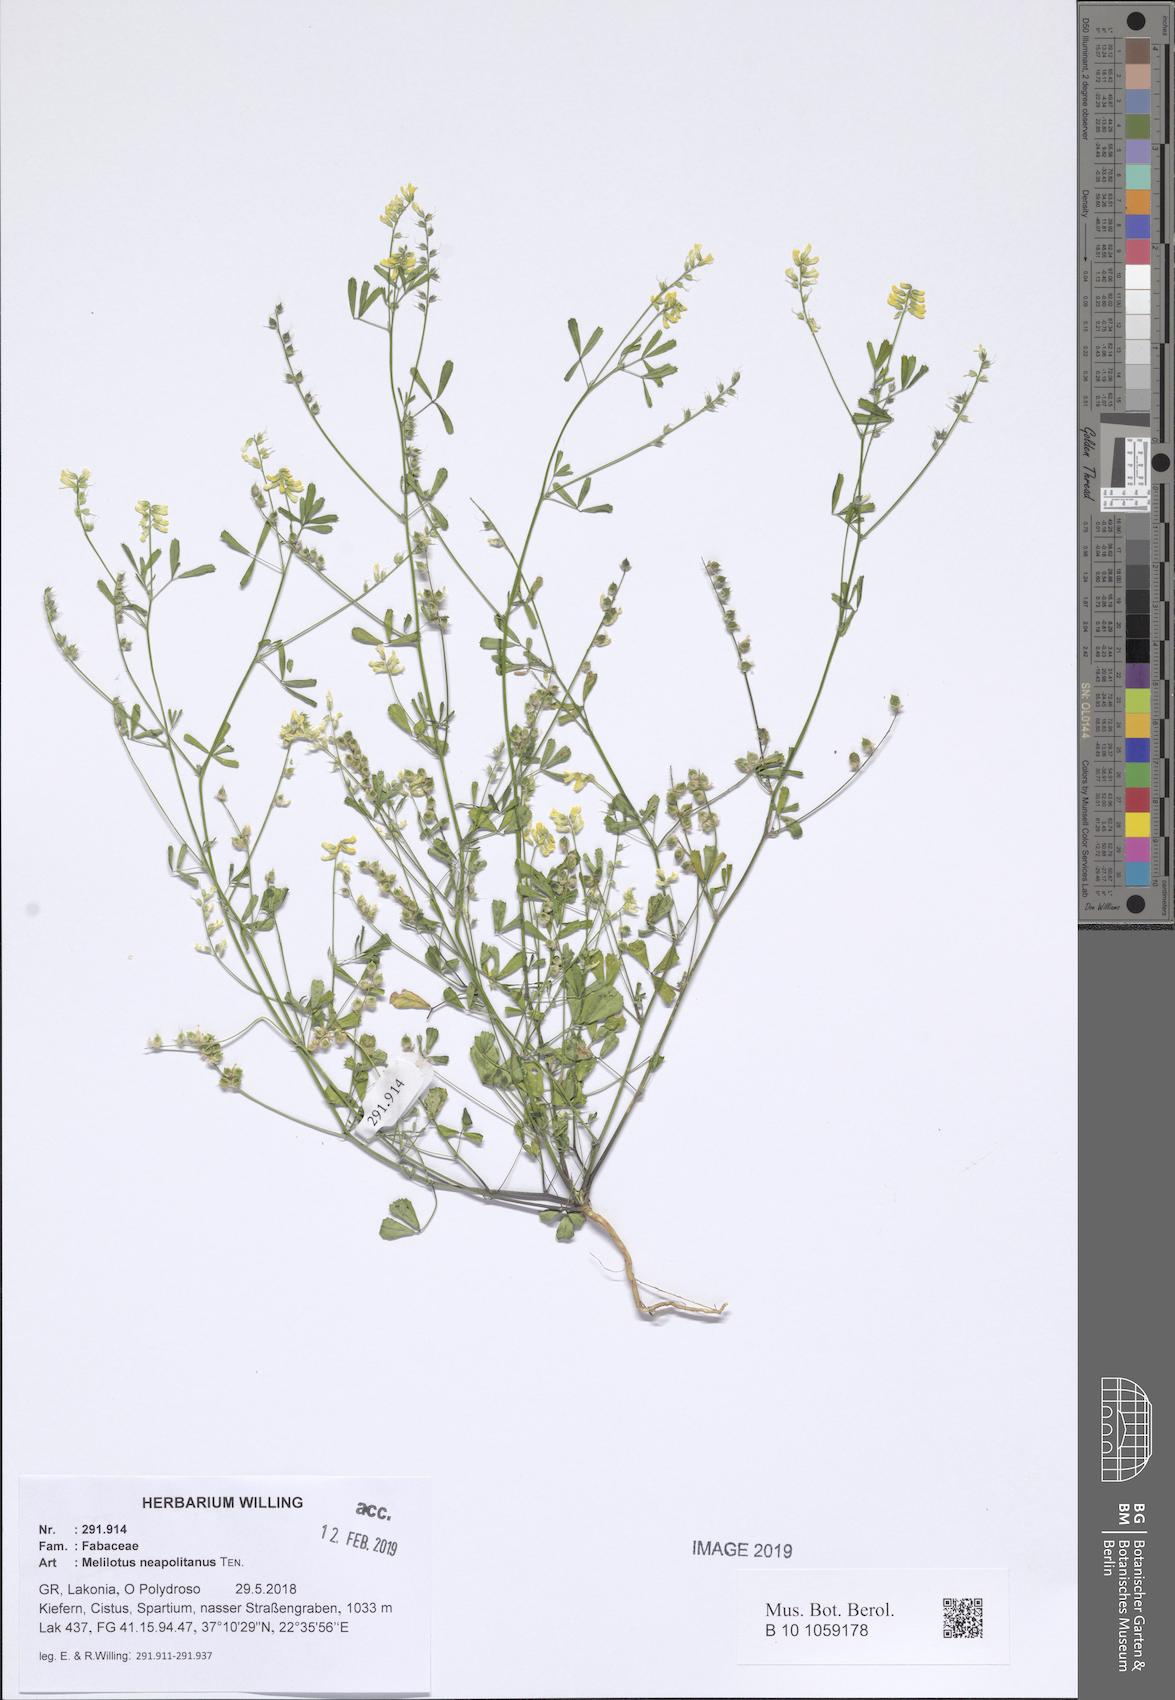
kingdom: Plantae
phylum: Tracheophyta
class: Magnoliopsida
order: Fabales
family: Fabaceae
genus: Melilotus
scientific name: Melilotus neapolitanus
